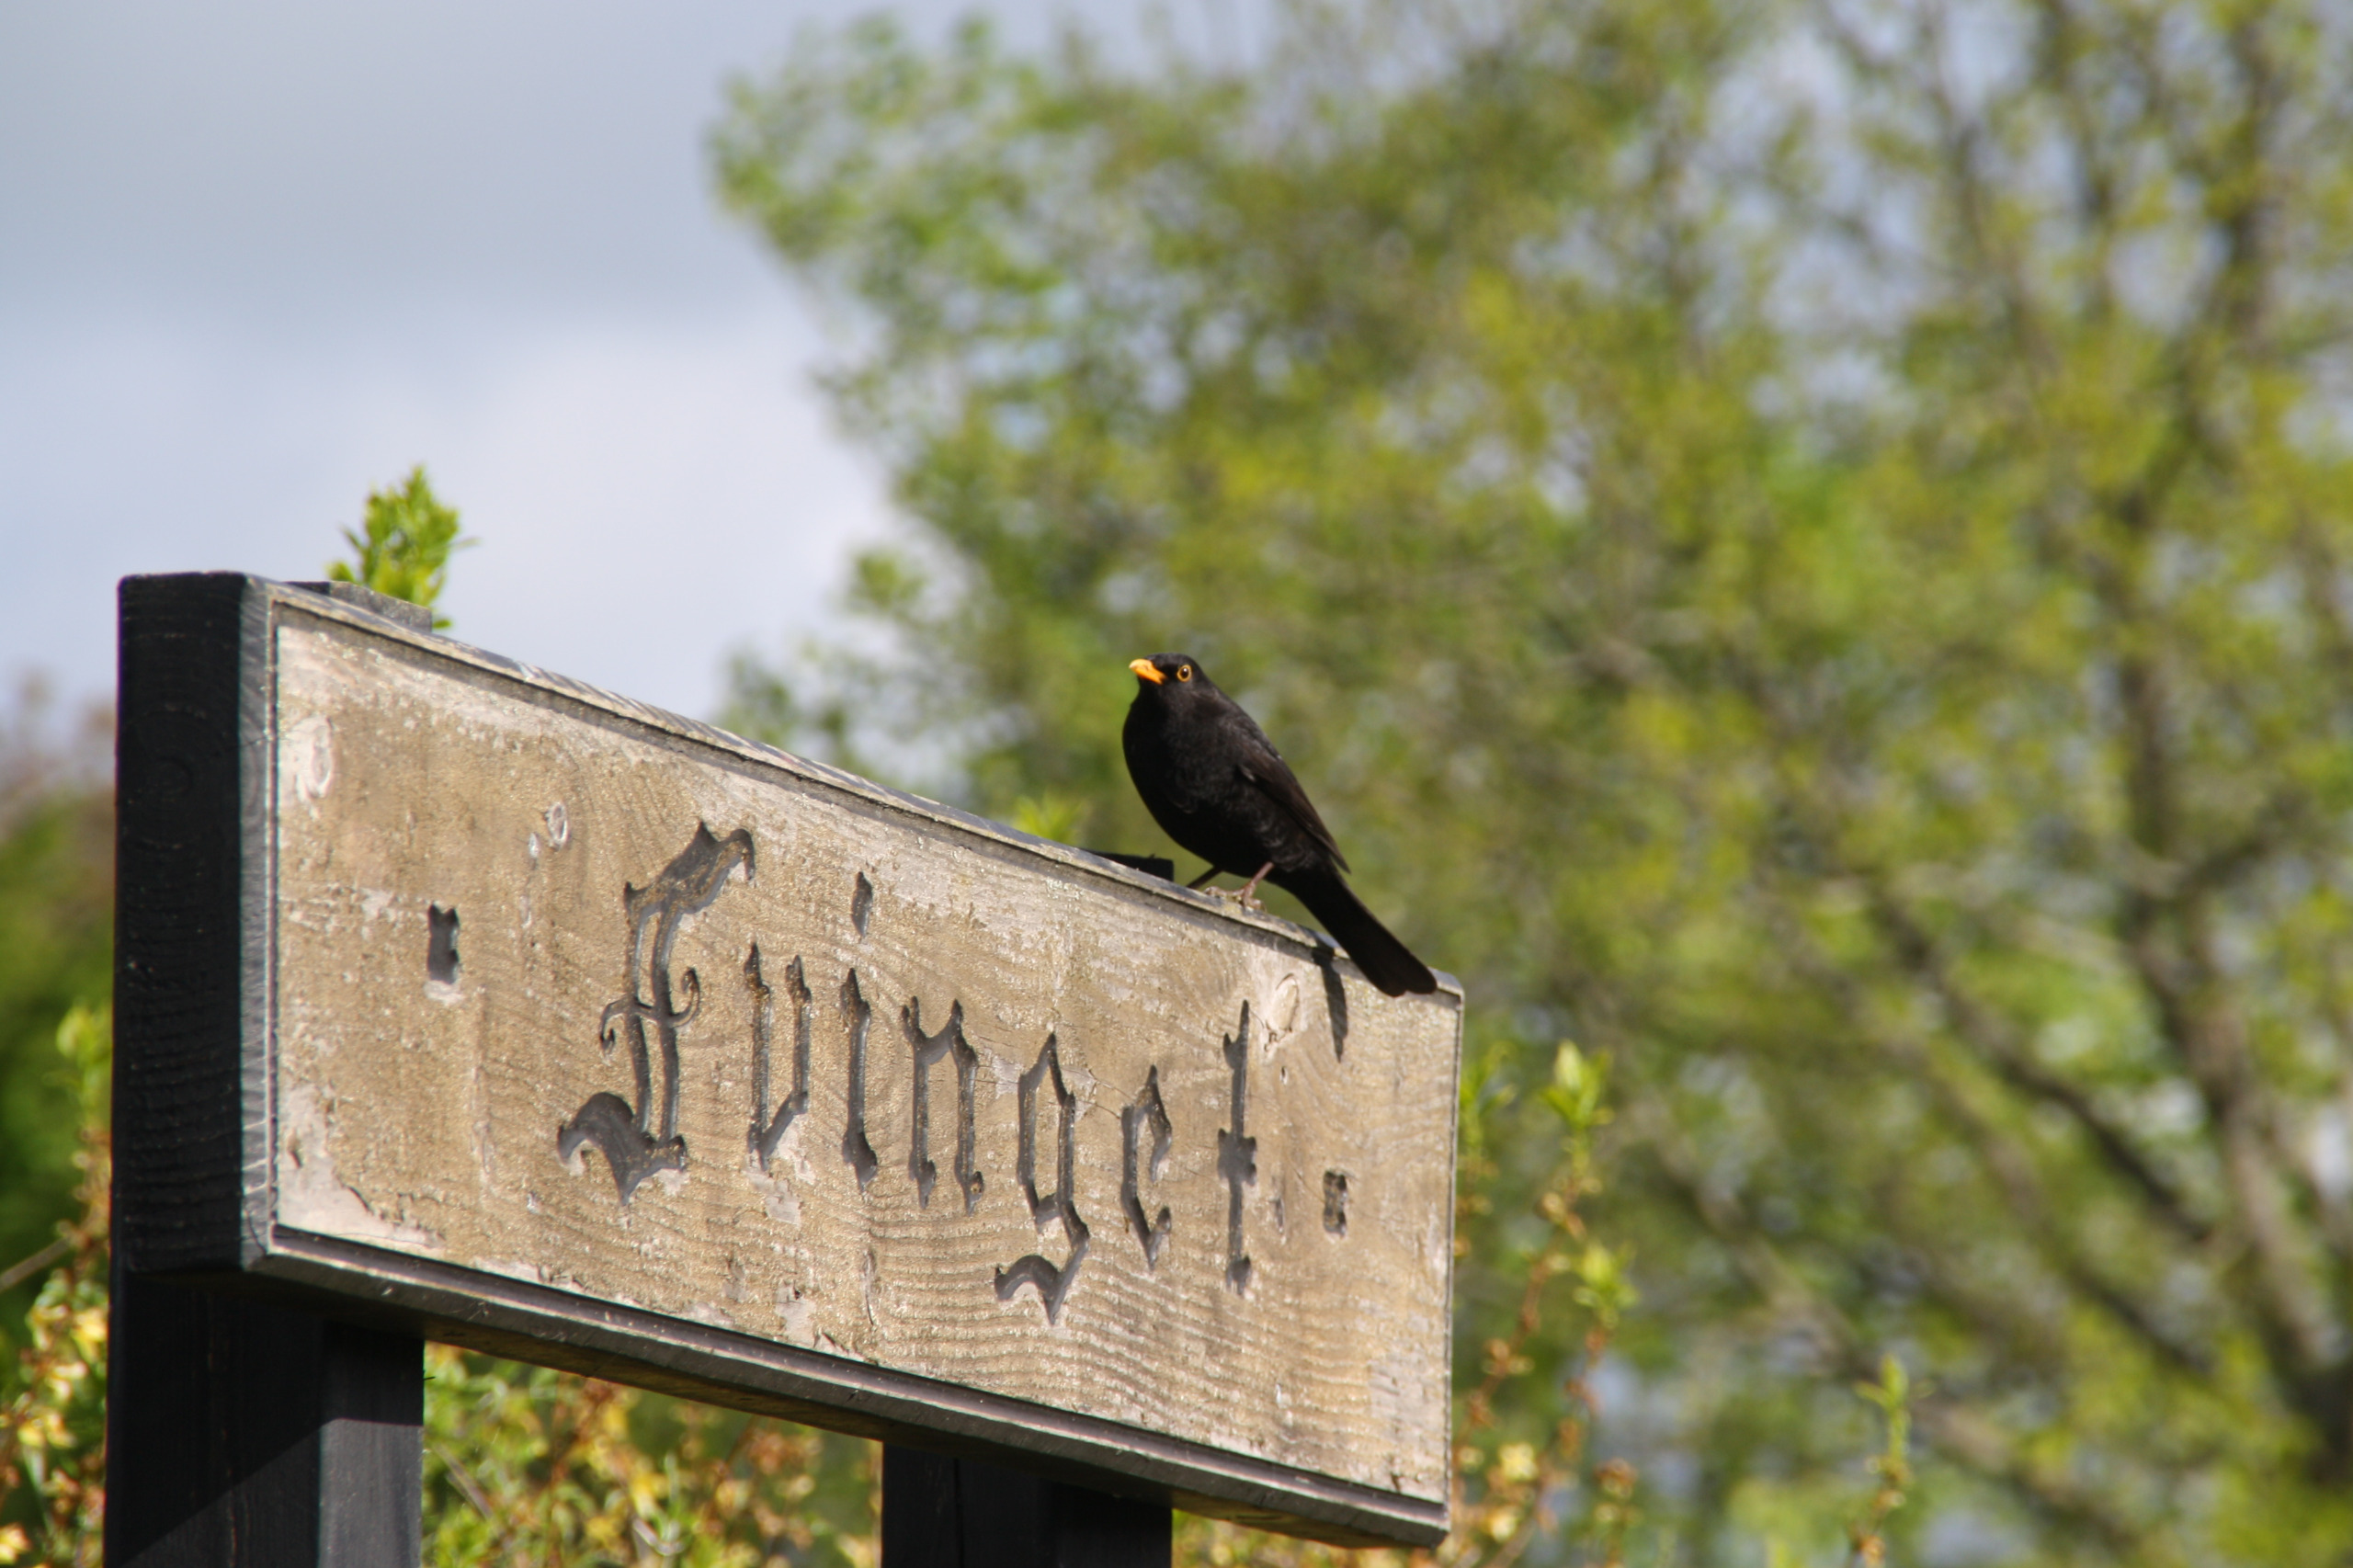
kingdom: Animalia
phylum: Chordata
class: Aves
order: Passeriformes
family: Turdidae
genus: Turdus
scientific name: Turdus merula
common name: Solsort
